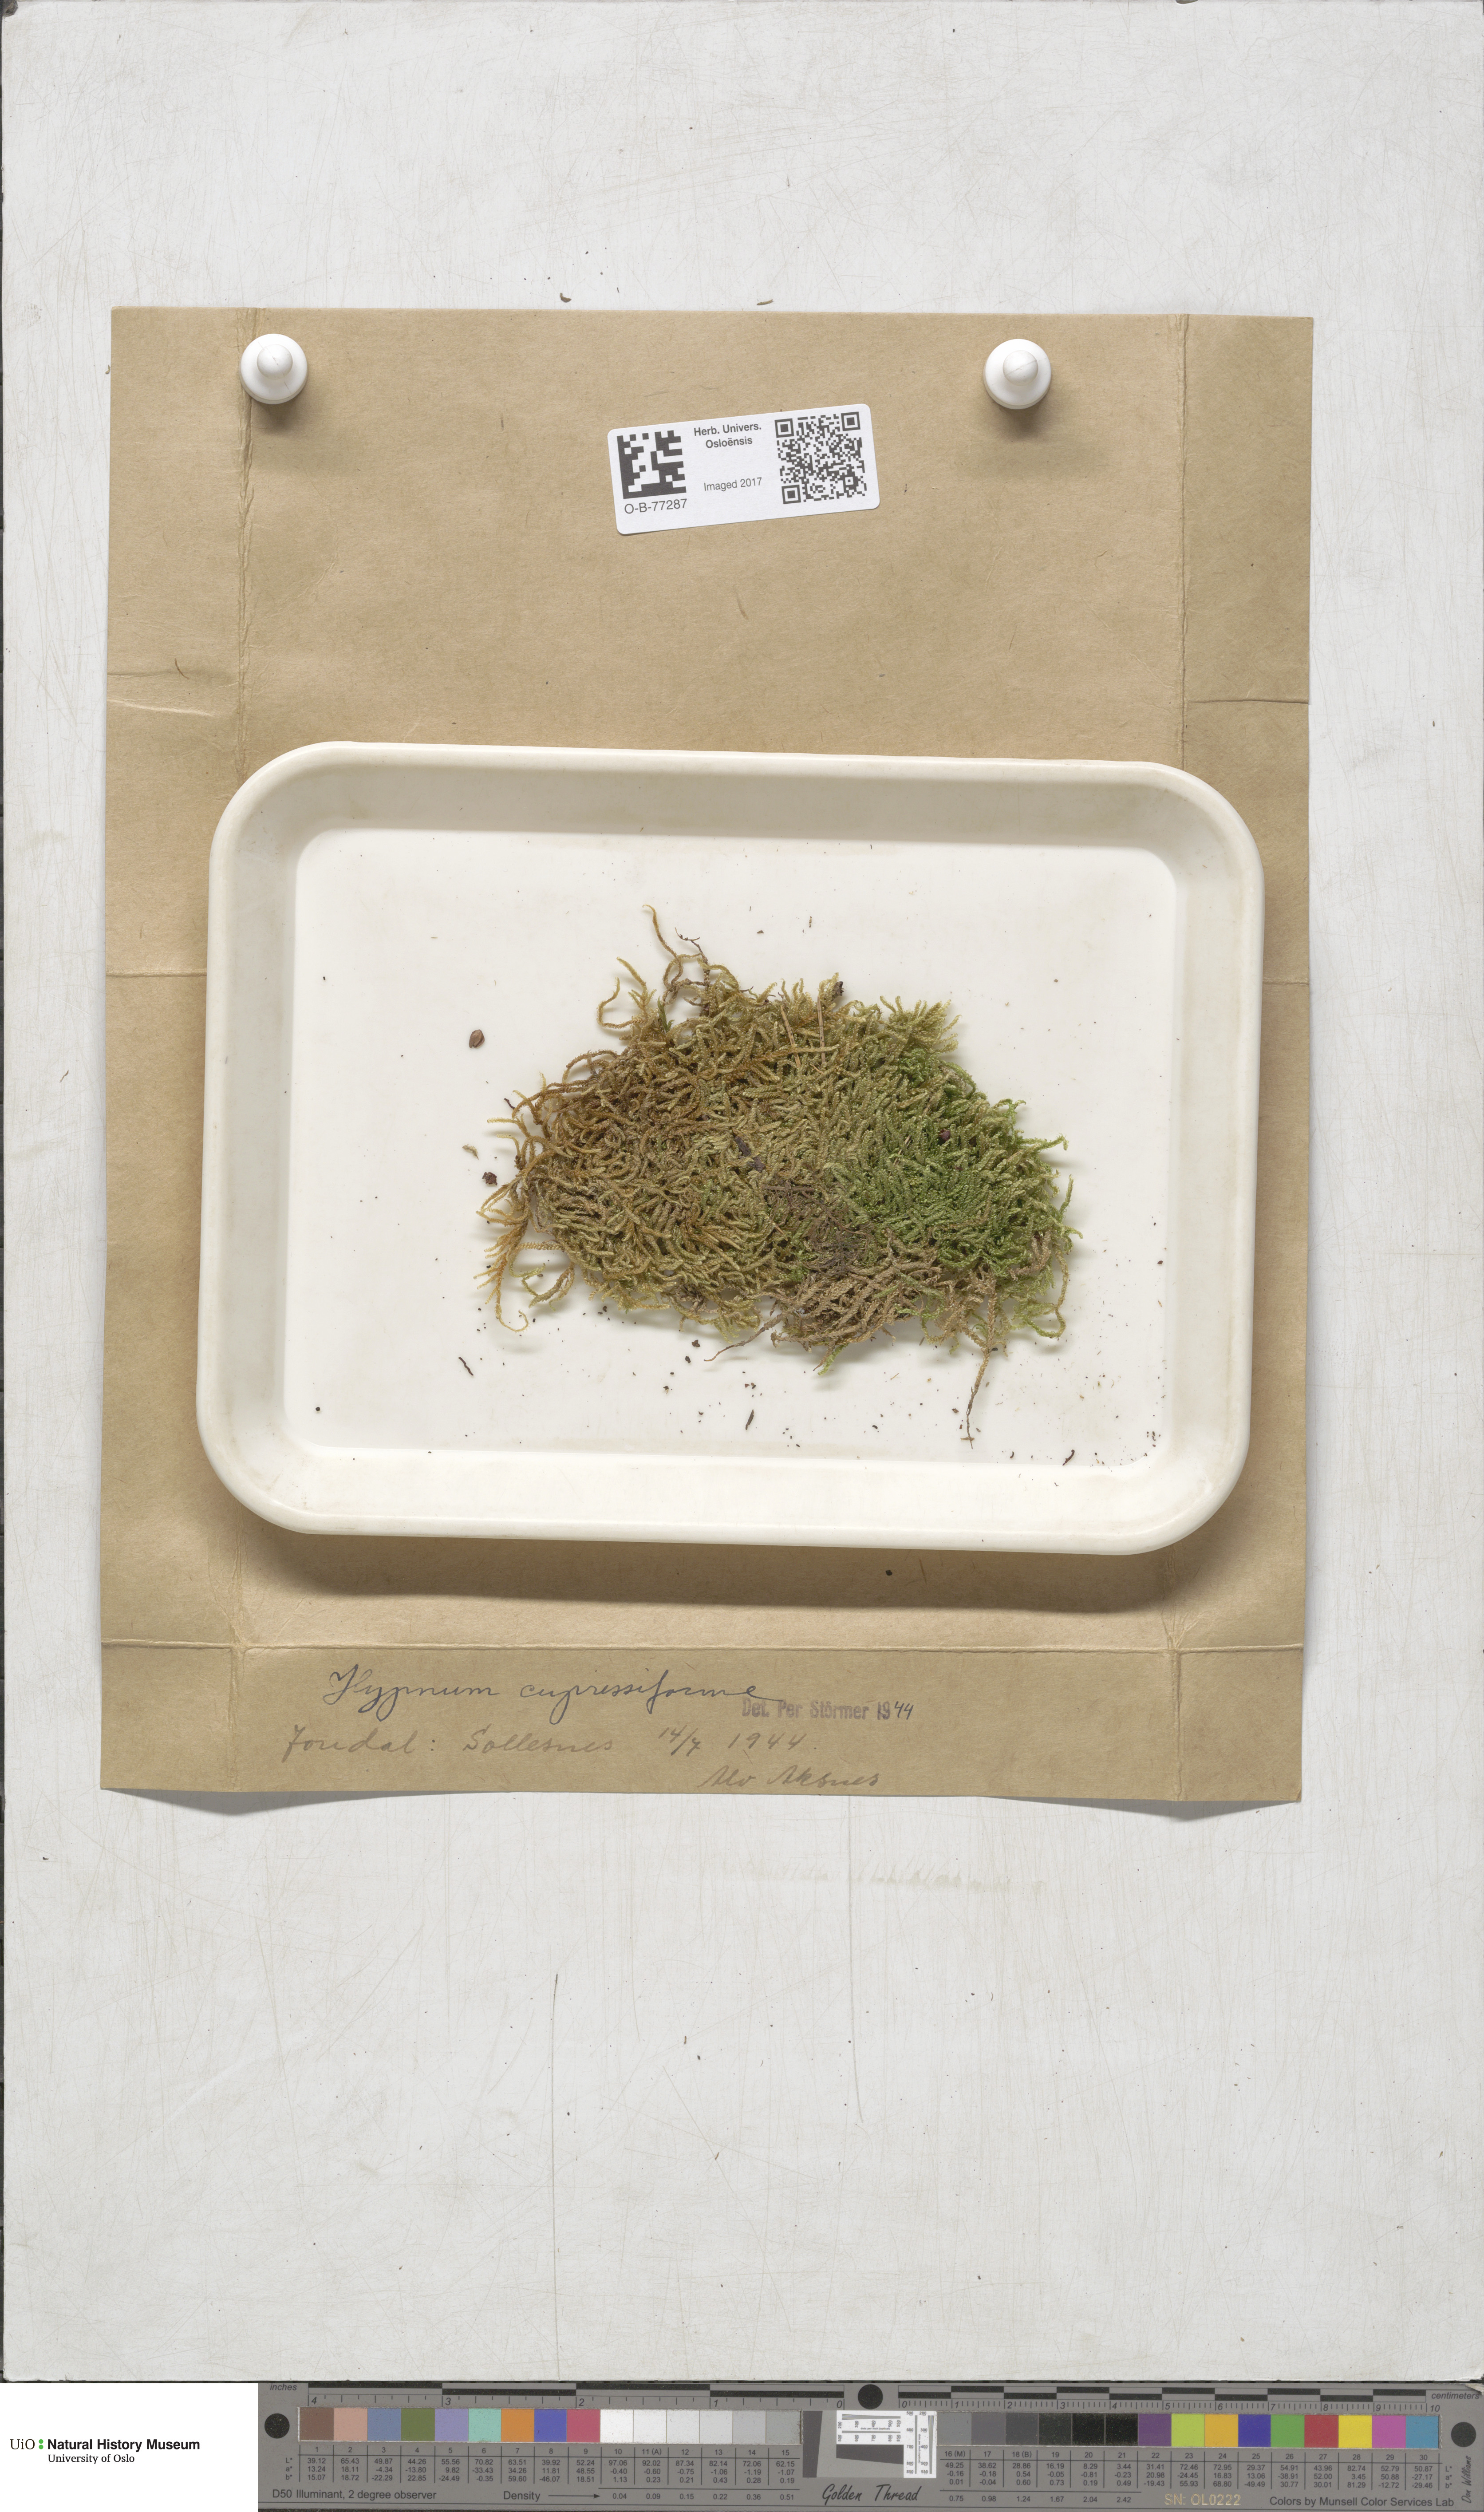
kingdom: Plantae
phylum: Bryophyta
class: Bryopsida
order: Hypnales
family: Hypnaceae
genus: Hypnum
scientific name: Hypnum cupressiforme
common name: Cypress-leaved plait-moss
